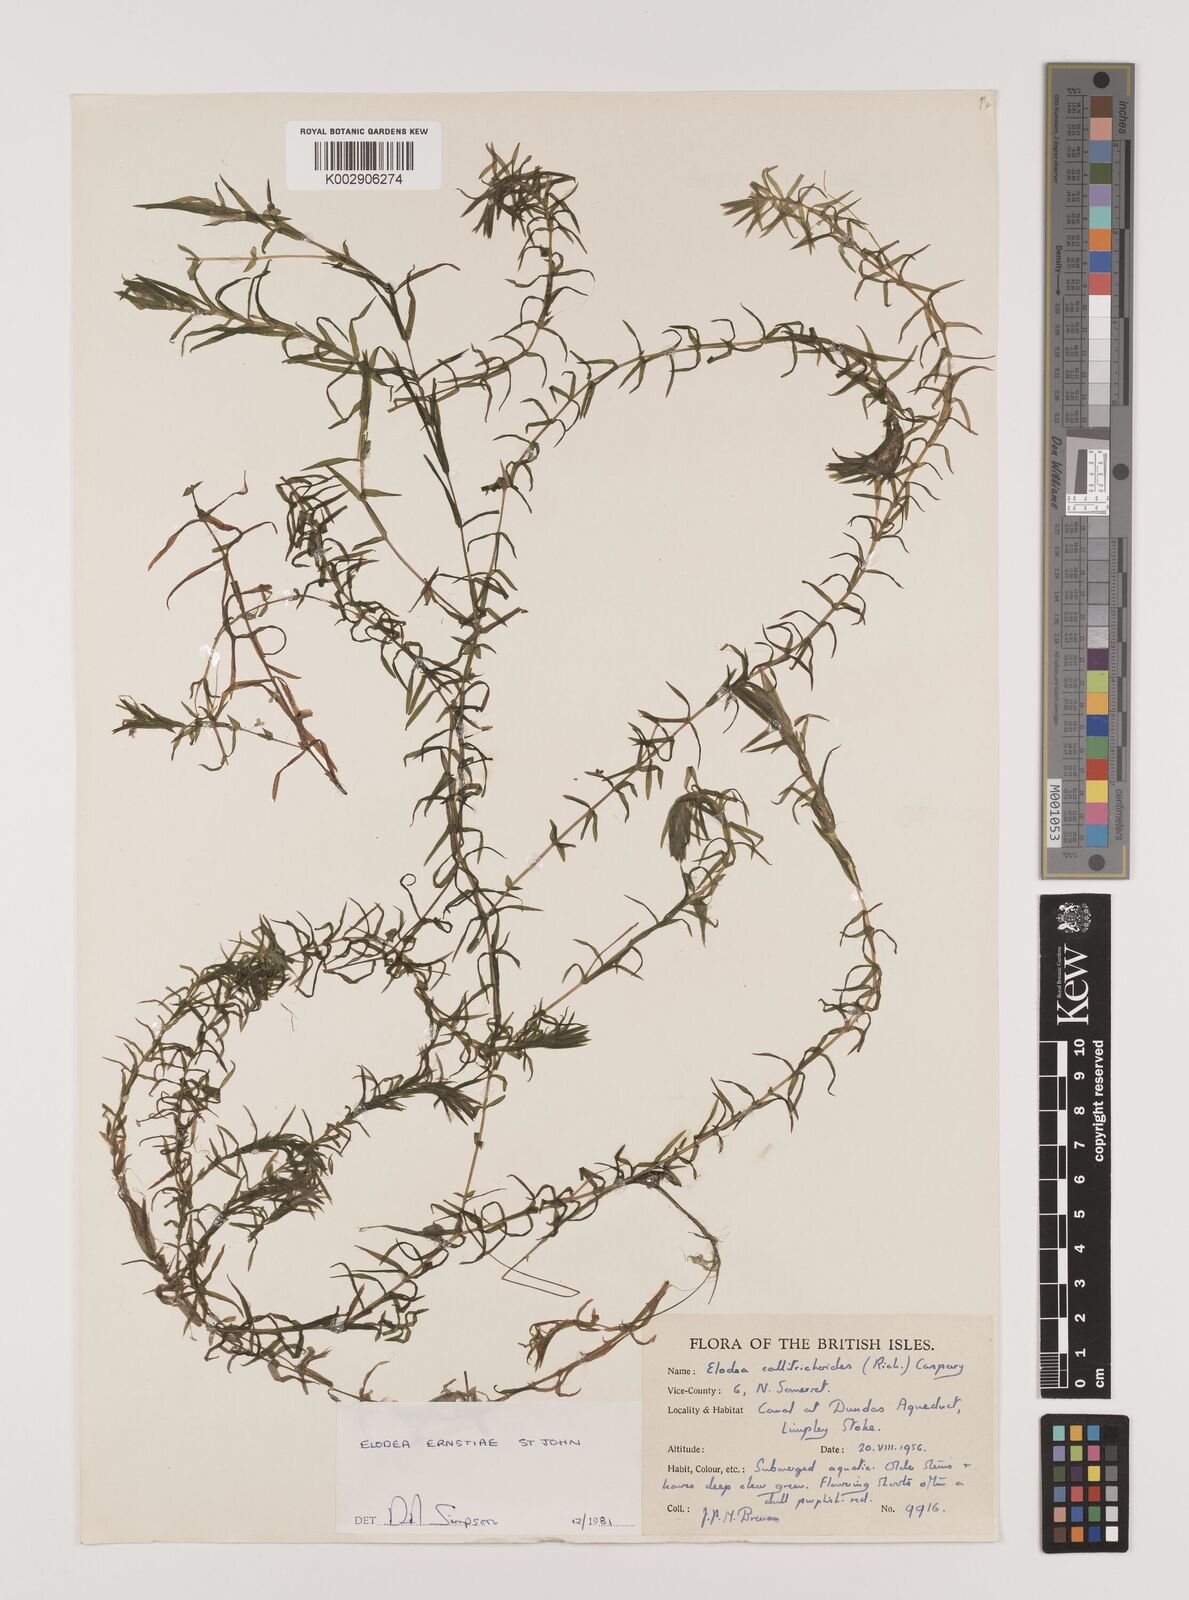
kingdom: Plantae
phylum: Tracheophyta
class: Liliopsida
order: Alismatales
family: Hydrocharitaceae
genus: Elodea
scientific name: Elodea callitrichoides
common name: South american waterweed
